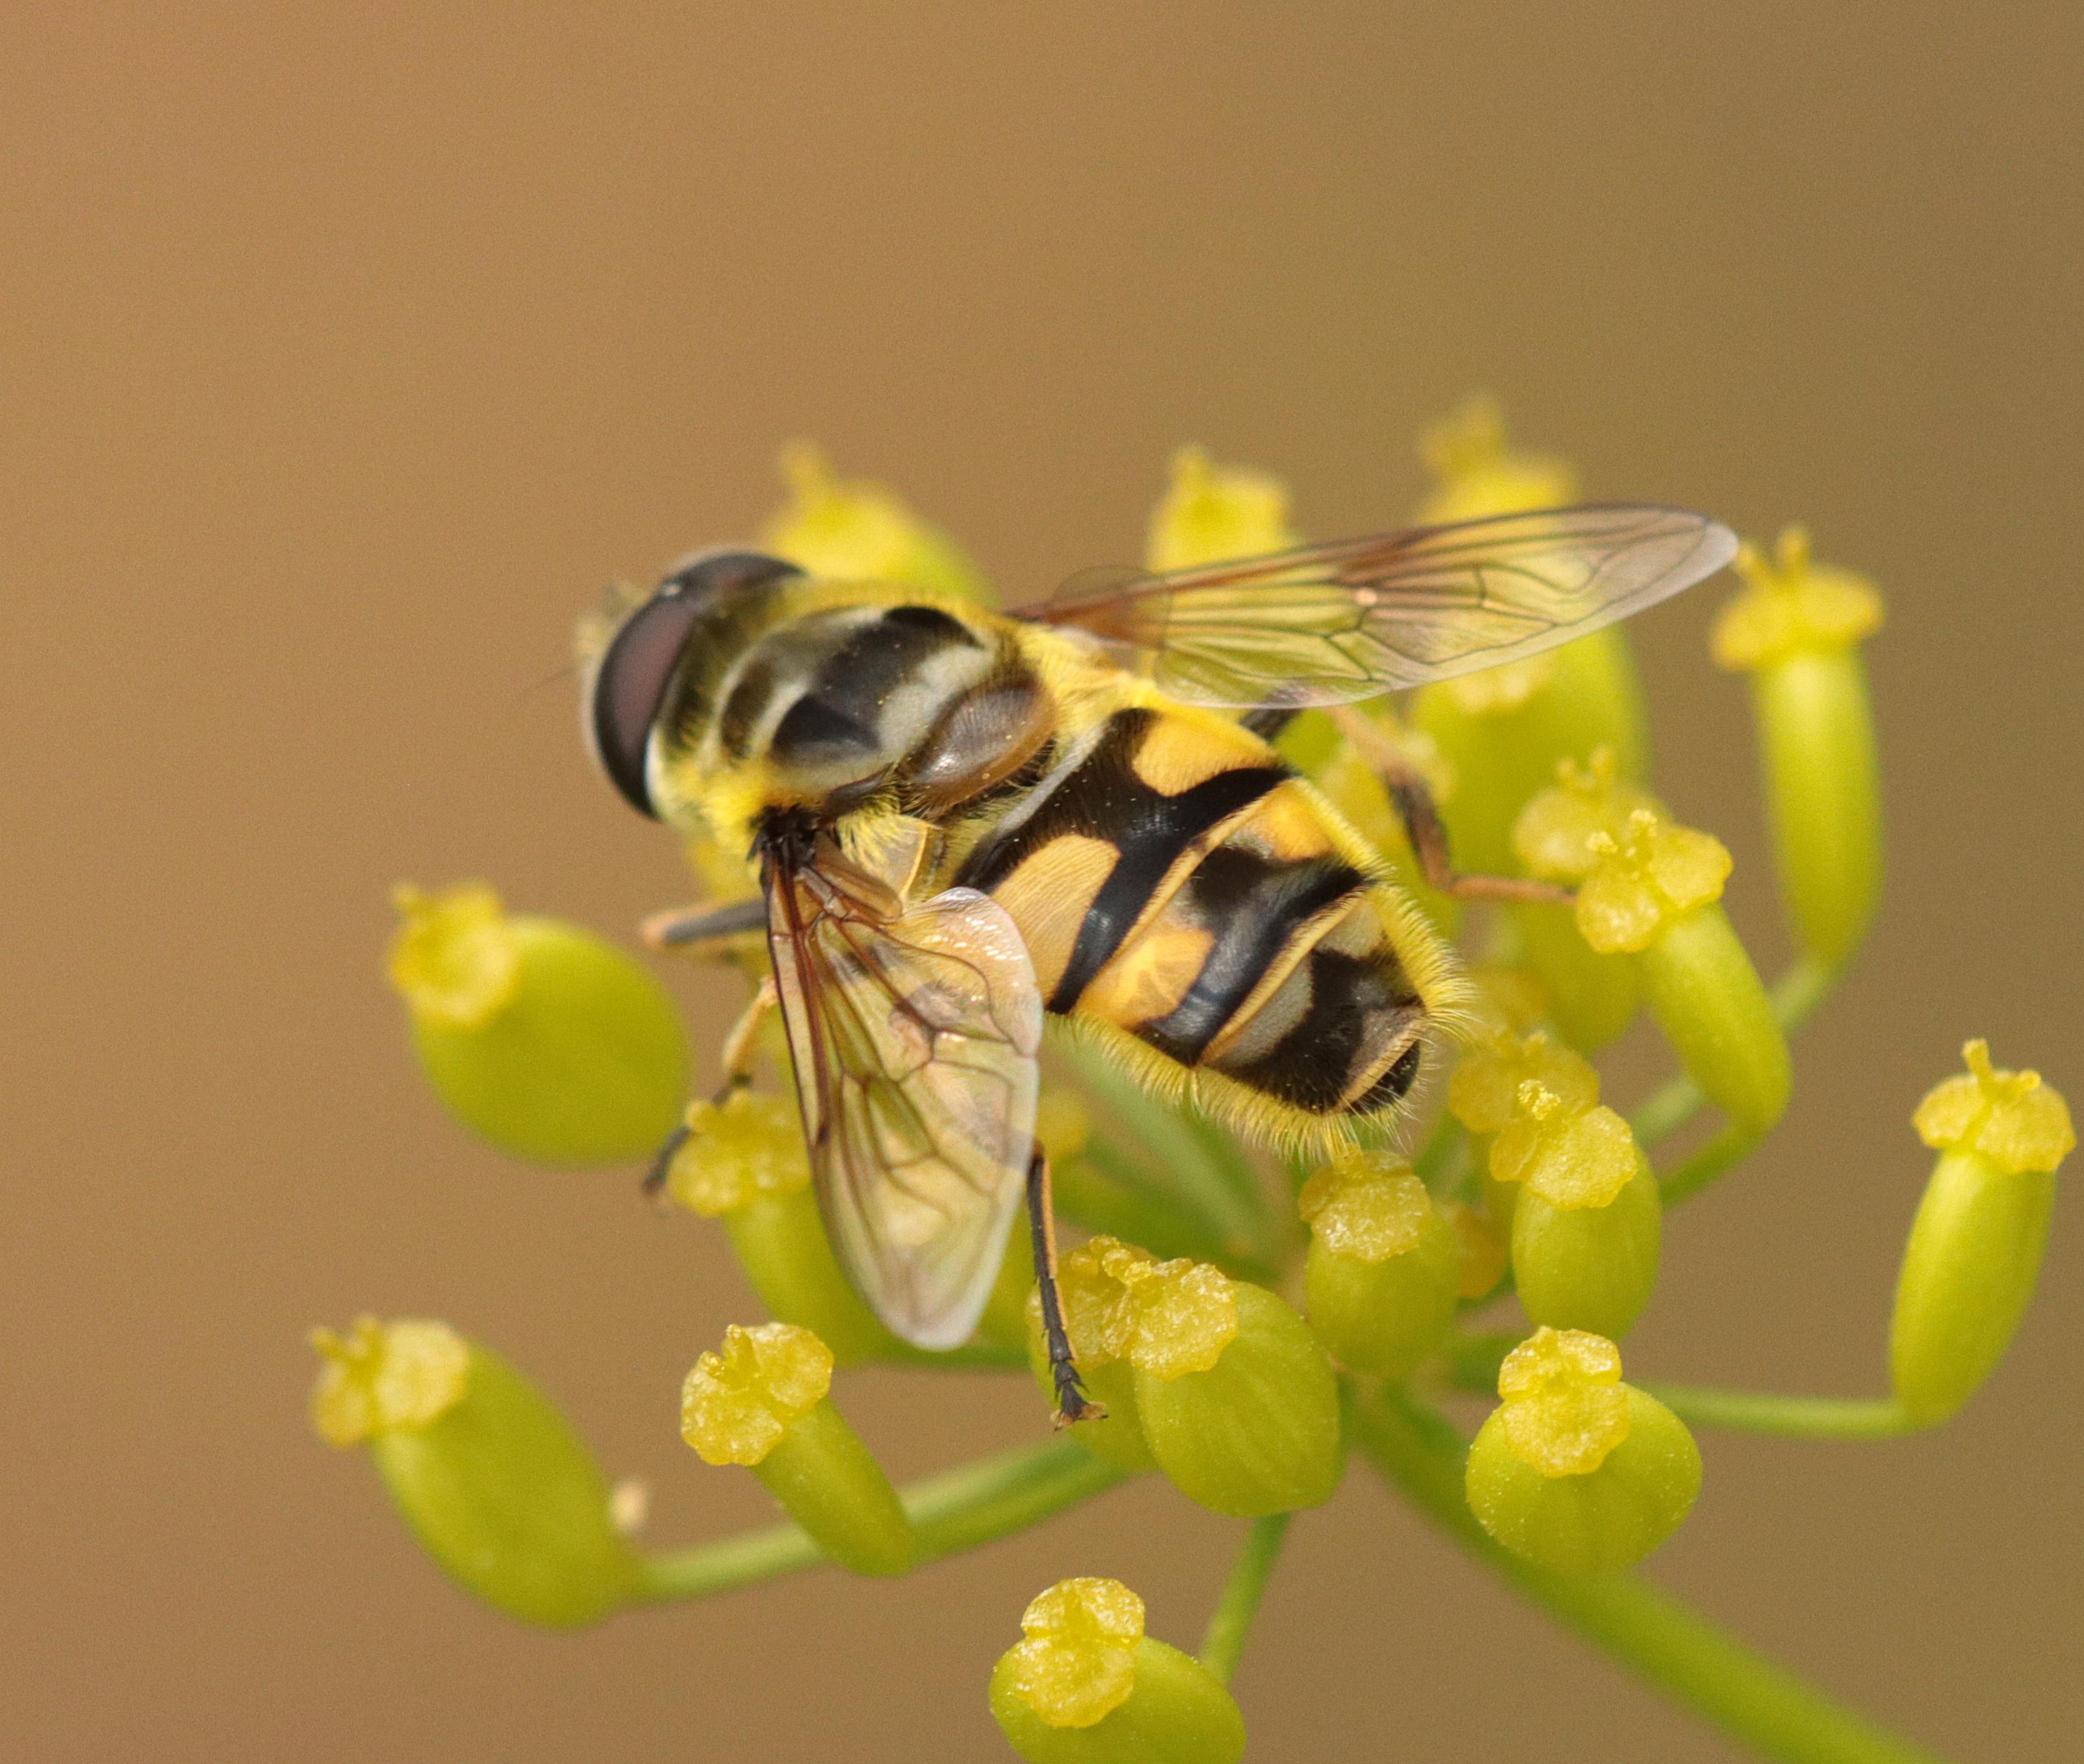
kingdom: Animalia
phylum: Arthropoda
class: Insecta
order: Diptera
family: Syrphidae
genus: Myathropa
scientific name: Myathropa florea
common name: Dødningehoved-svirreflue
